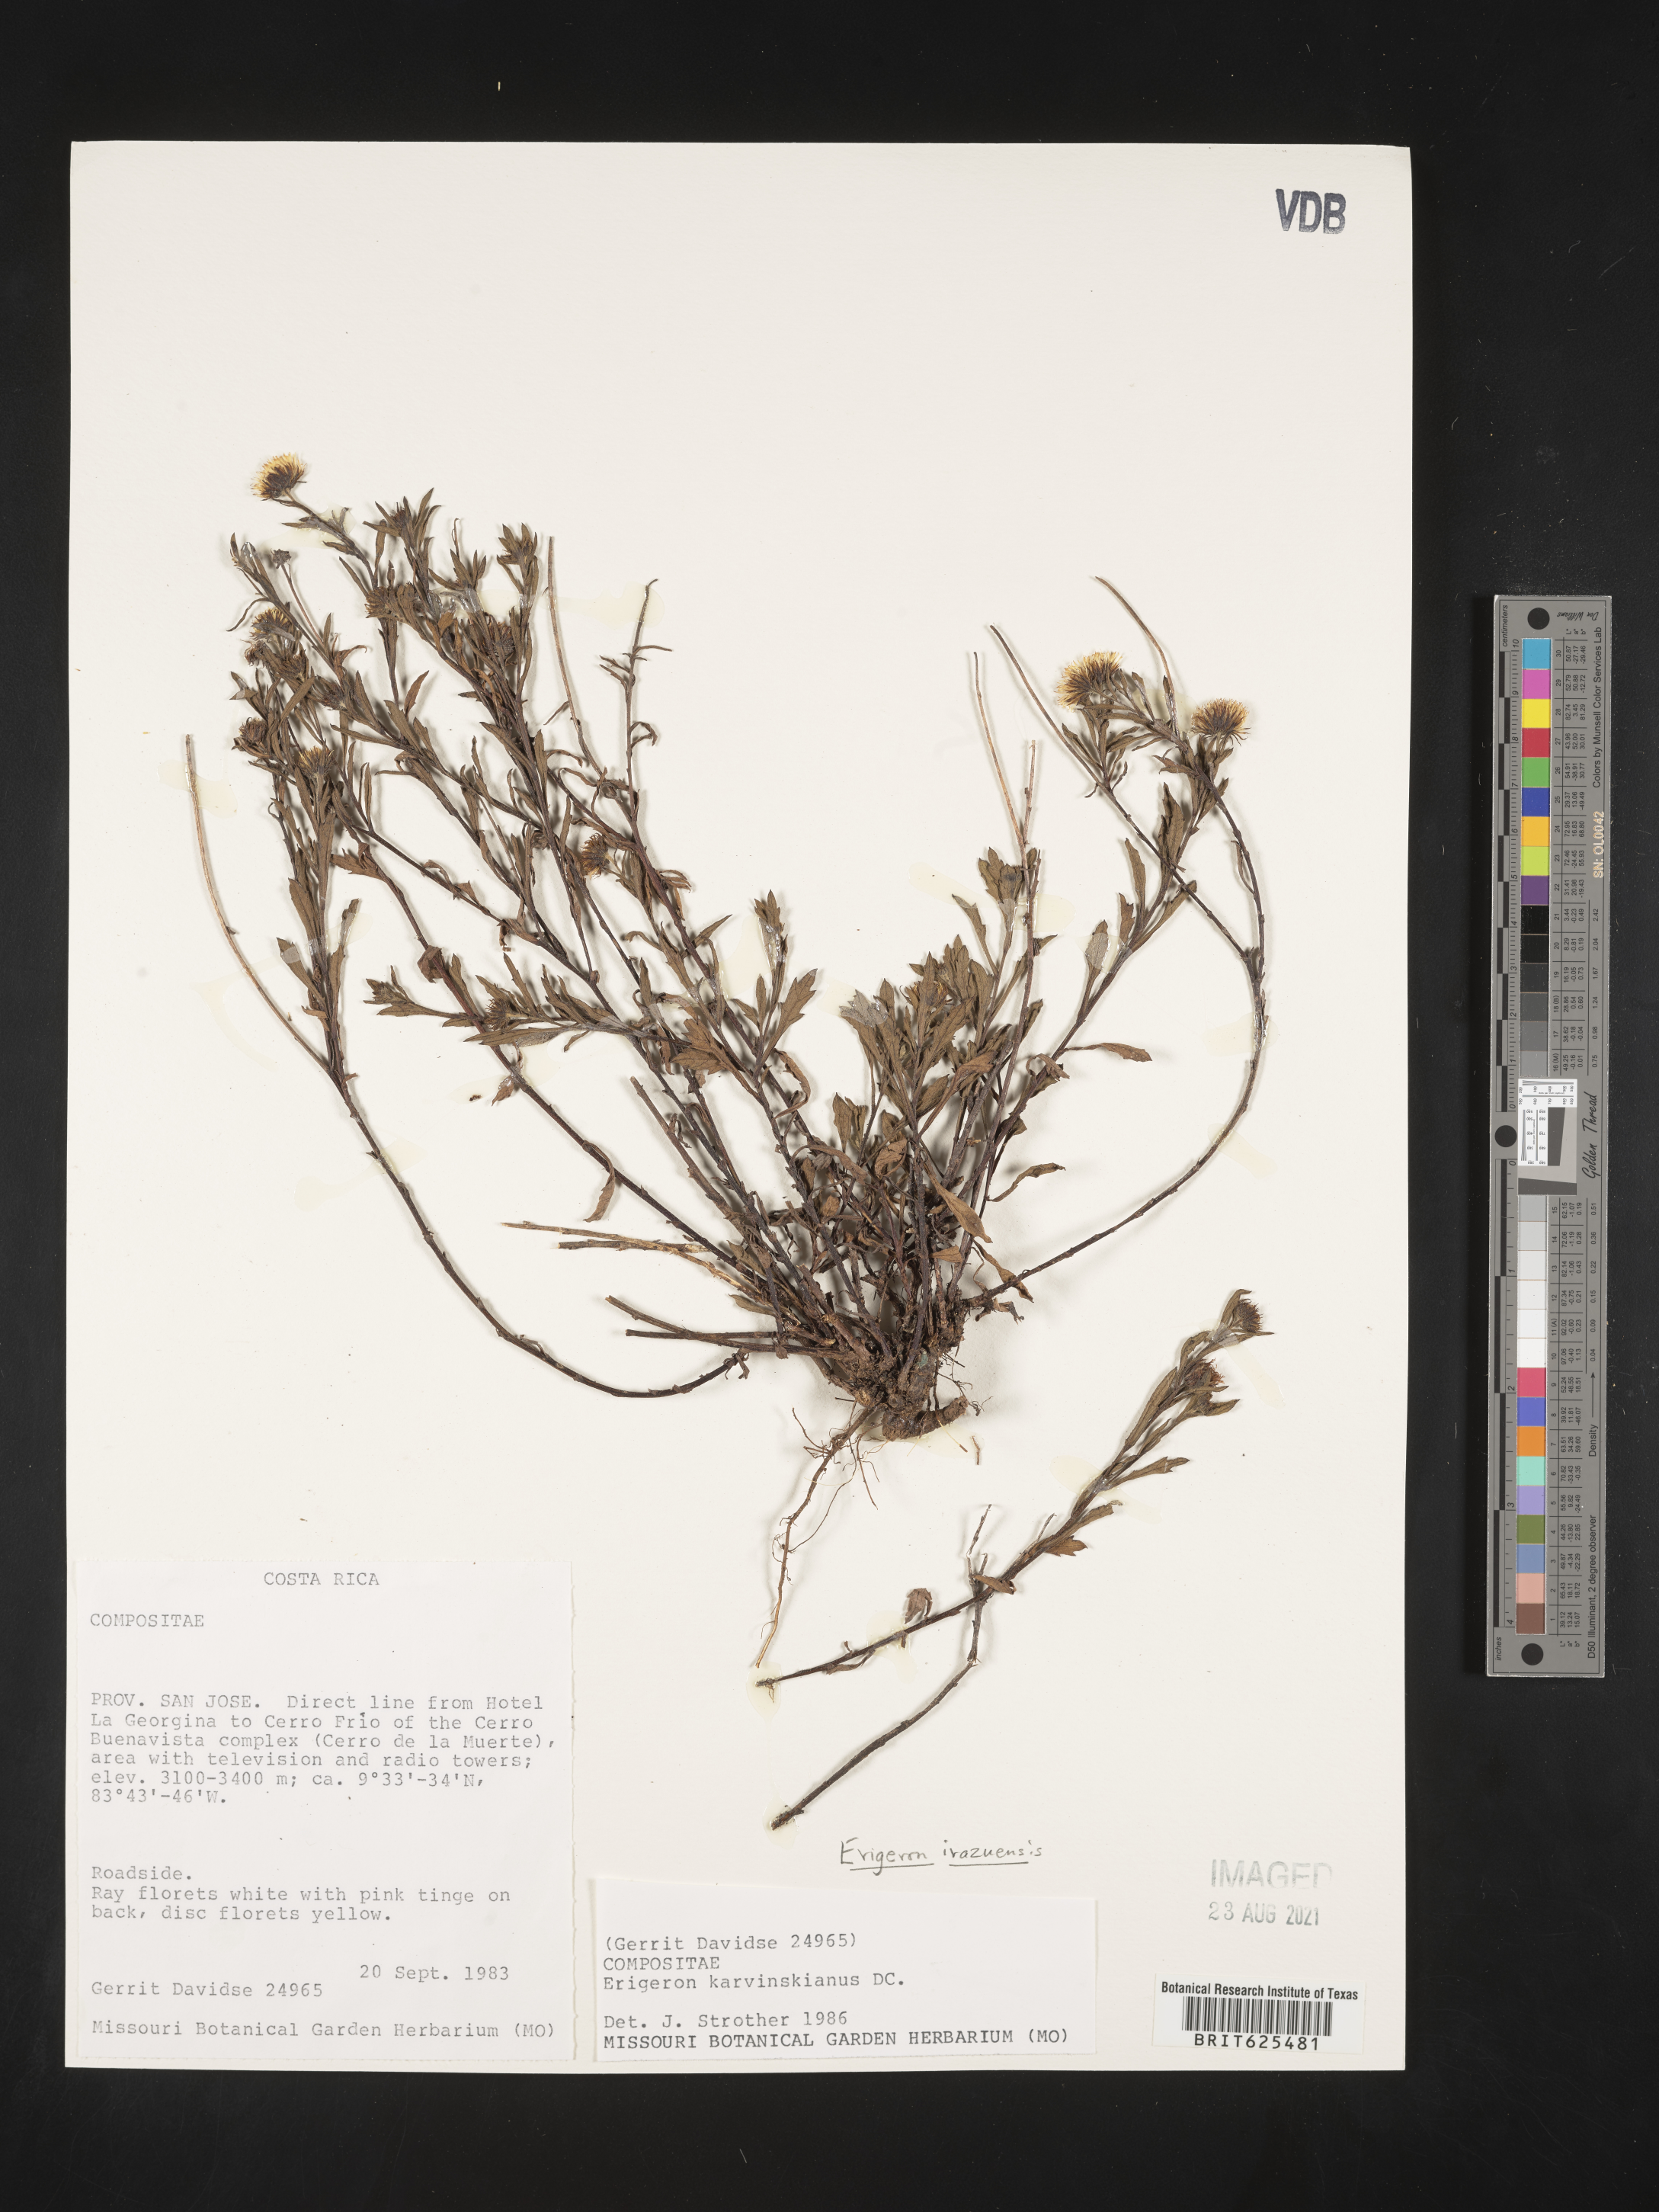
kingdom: Plantae
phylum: Tracheophyta
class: Magnoliopsida
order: Asterales
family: Asteraceae
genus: Erigeron
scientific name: Erigeron
